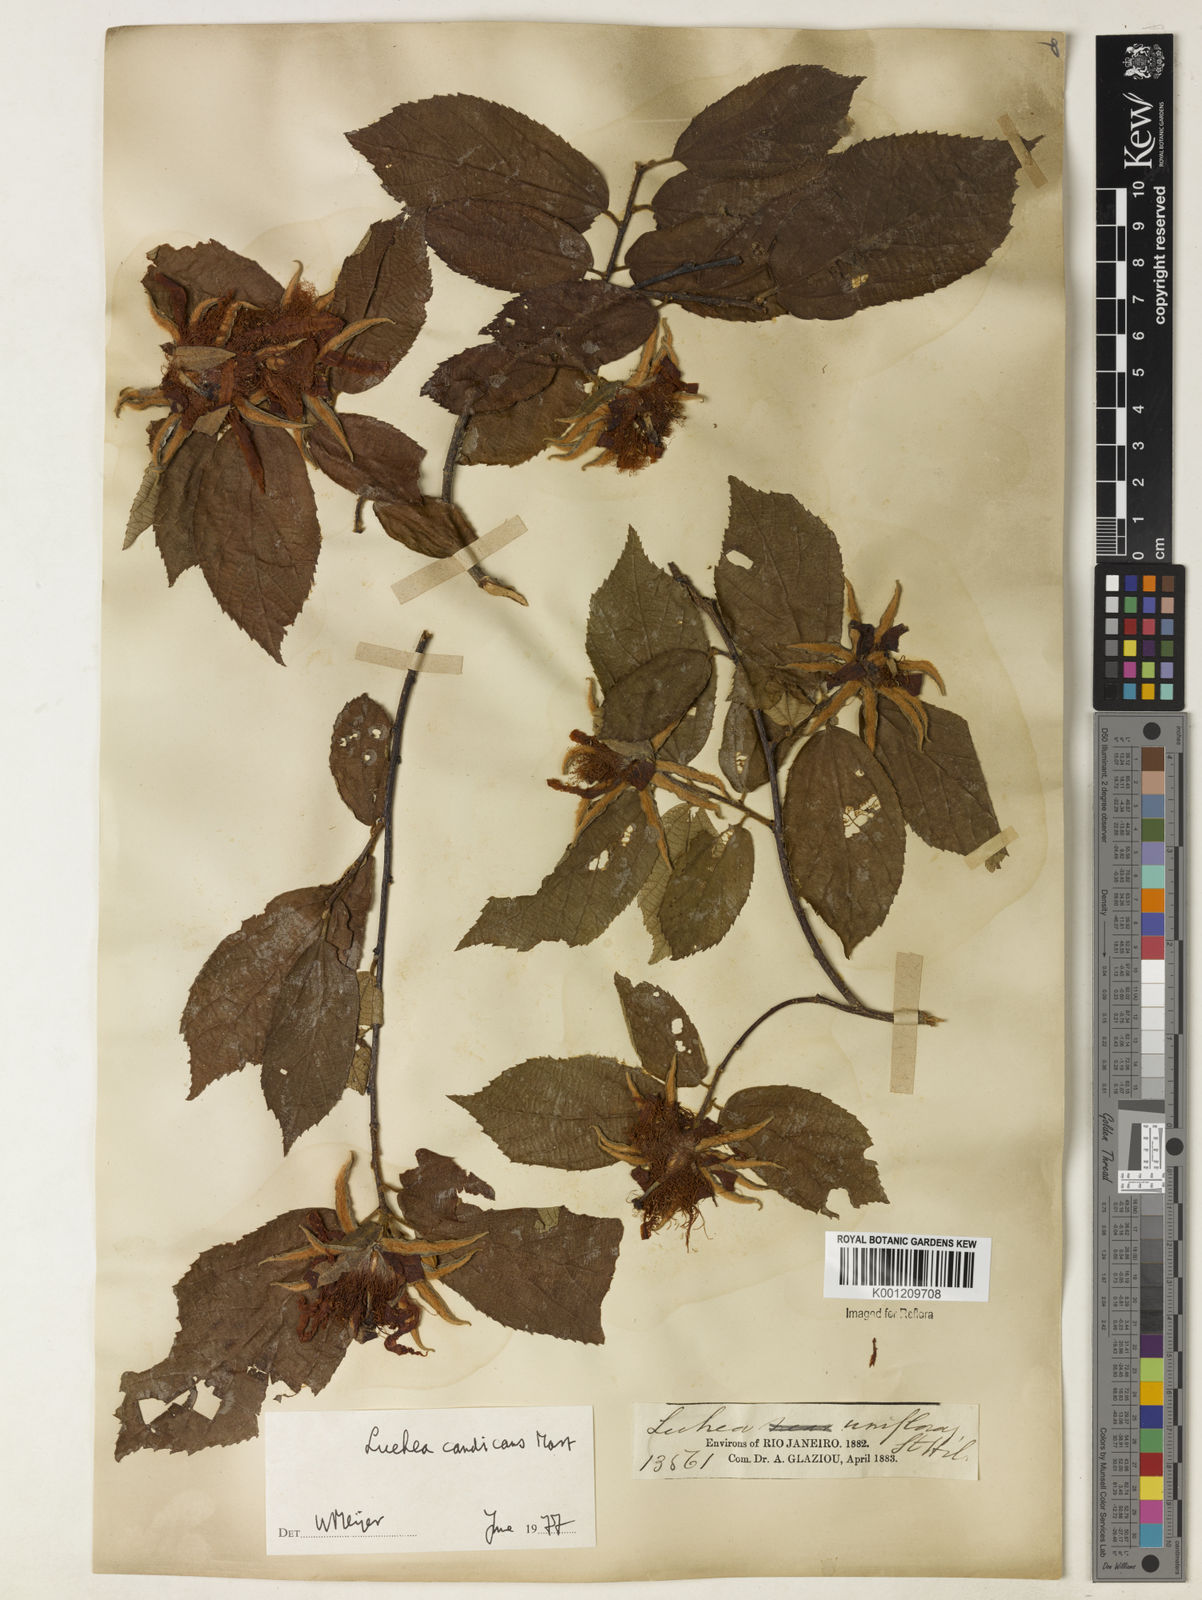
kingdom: Plantae
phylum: Tracheophyta
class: Magnoliopsida
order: Malvales
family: Malvaceae
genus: Luehea
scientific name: Luehea candicans
